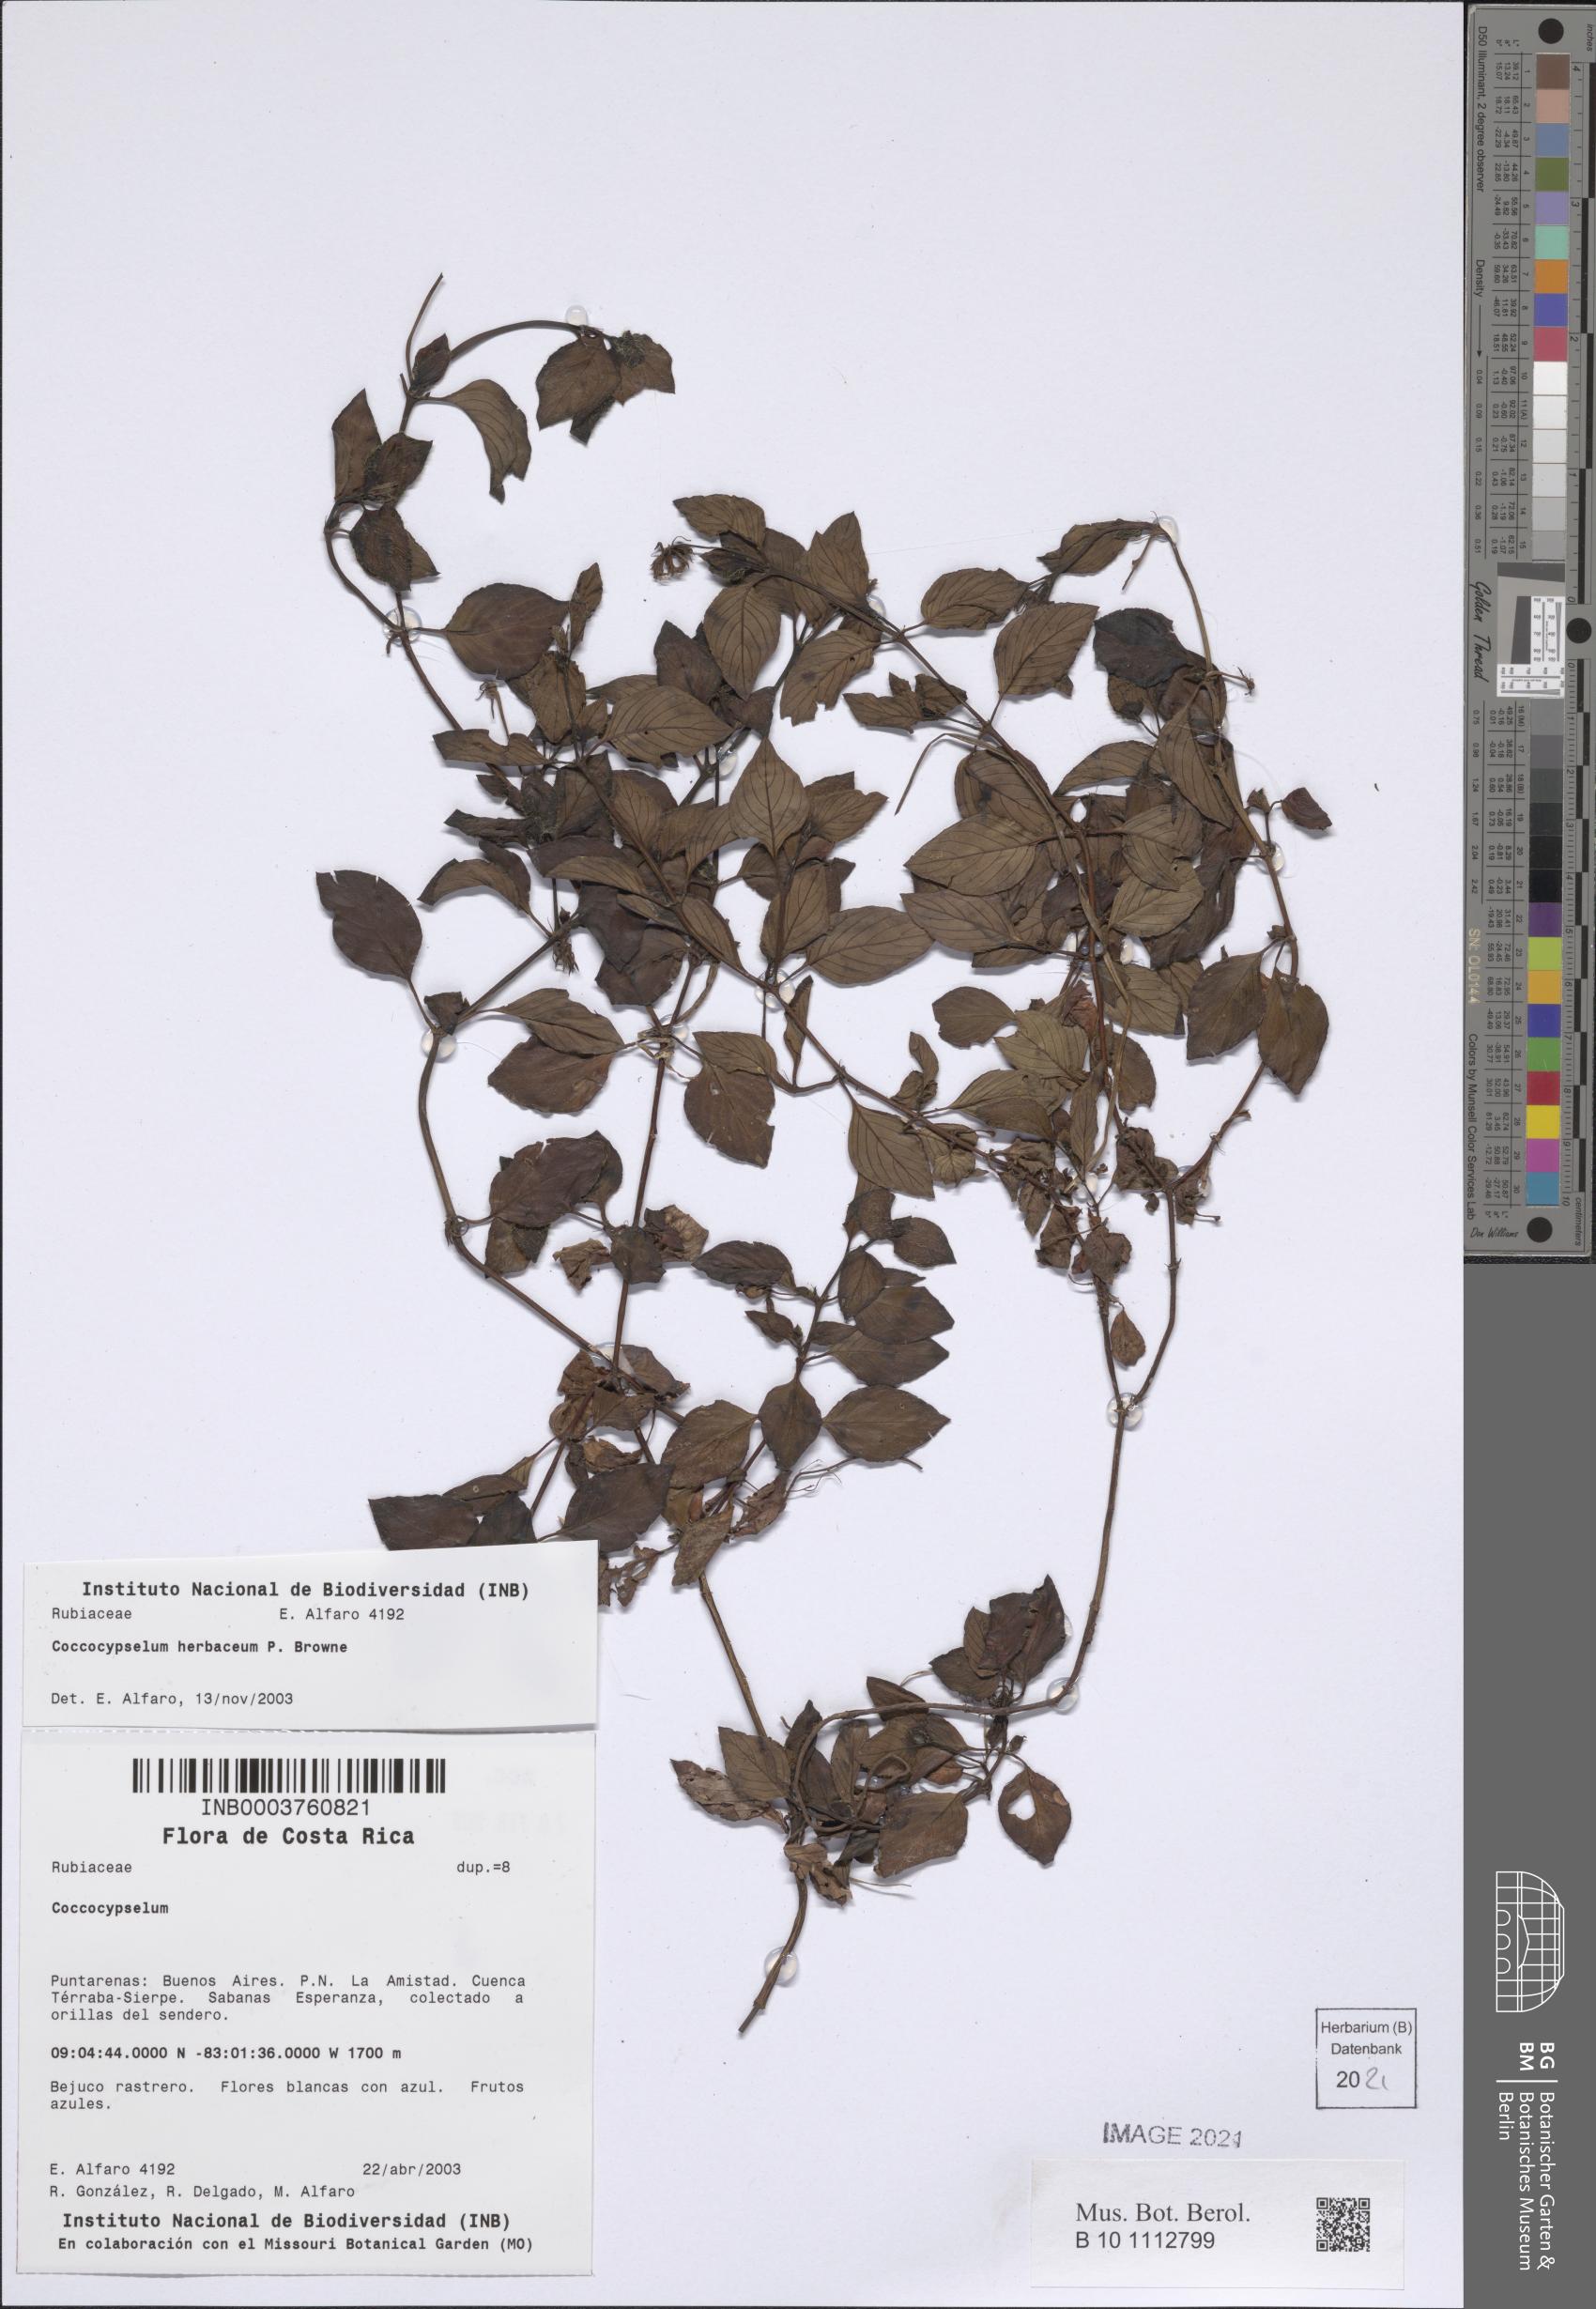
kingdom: Plantae
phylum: Tracheophyta
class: Magnoliopsida
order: Gentianales
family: Rubiaceae
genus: Coccocypselum
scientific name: Coccocypselum condalia
